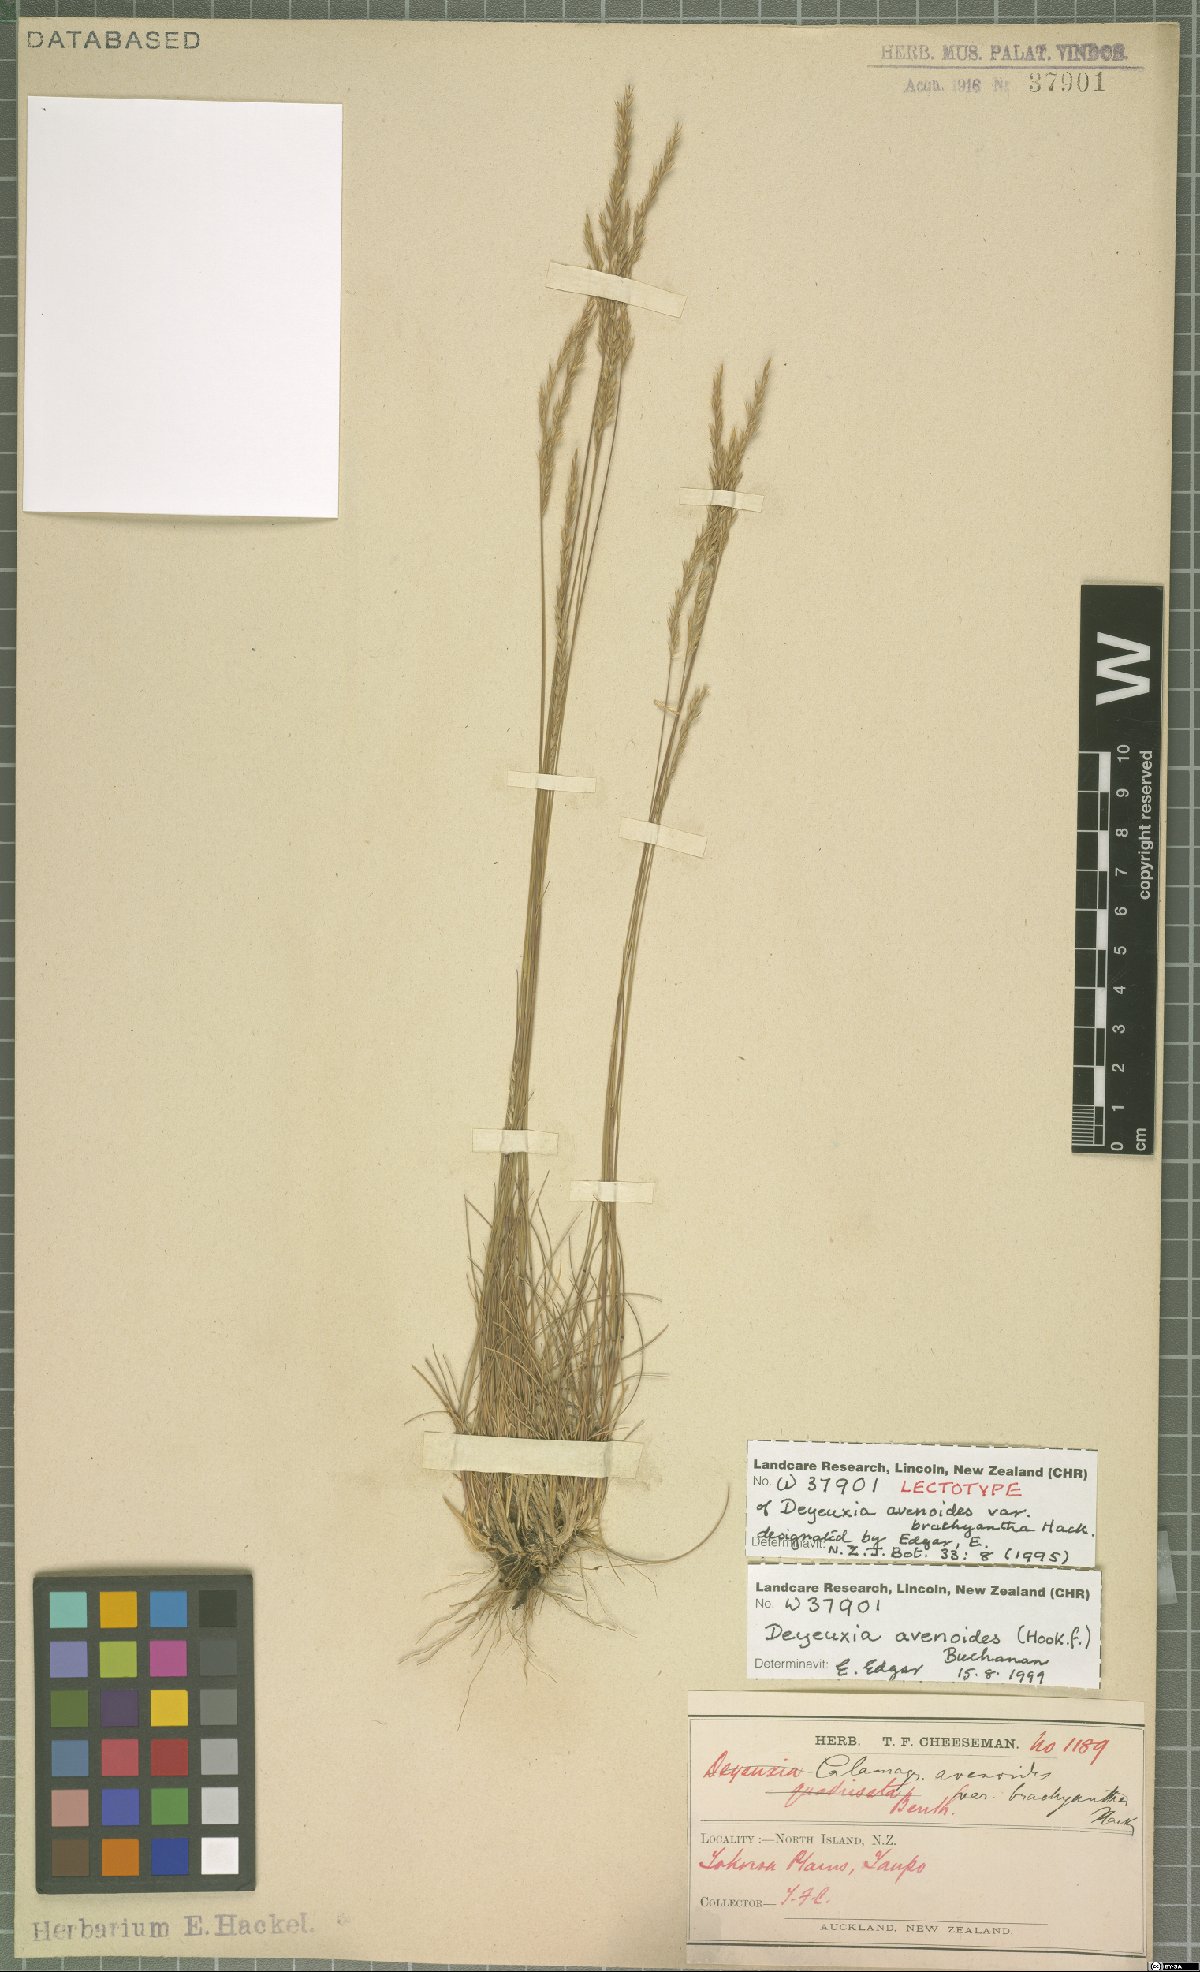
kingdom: Plantae
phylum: Tracheophyta
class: Liliopsida
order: Poales
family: Poaceae
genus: Calamagrostis
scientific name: Calamagrostis avenoides
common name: Mountain oat grass
